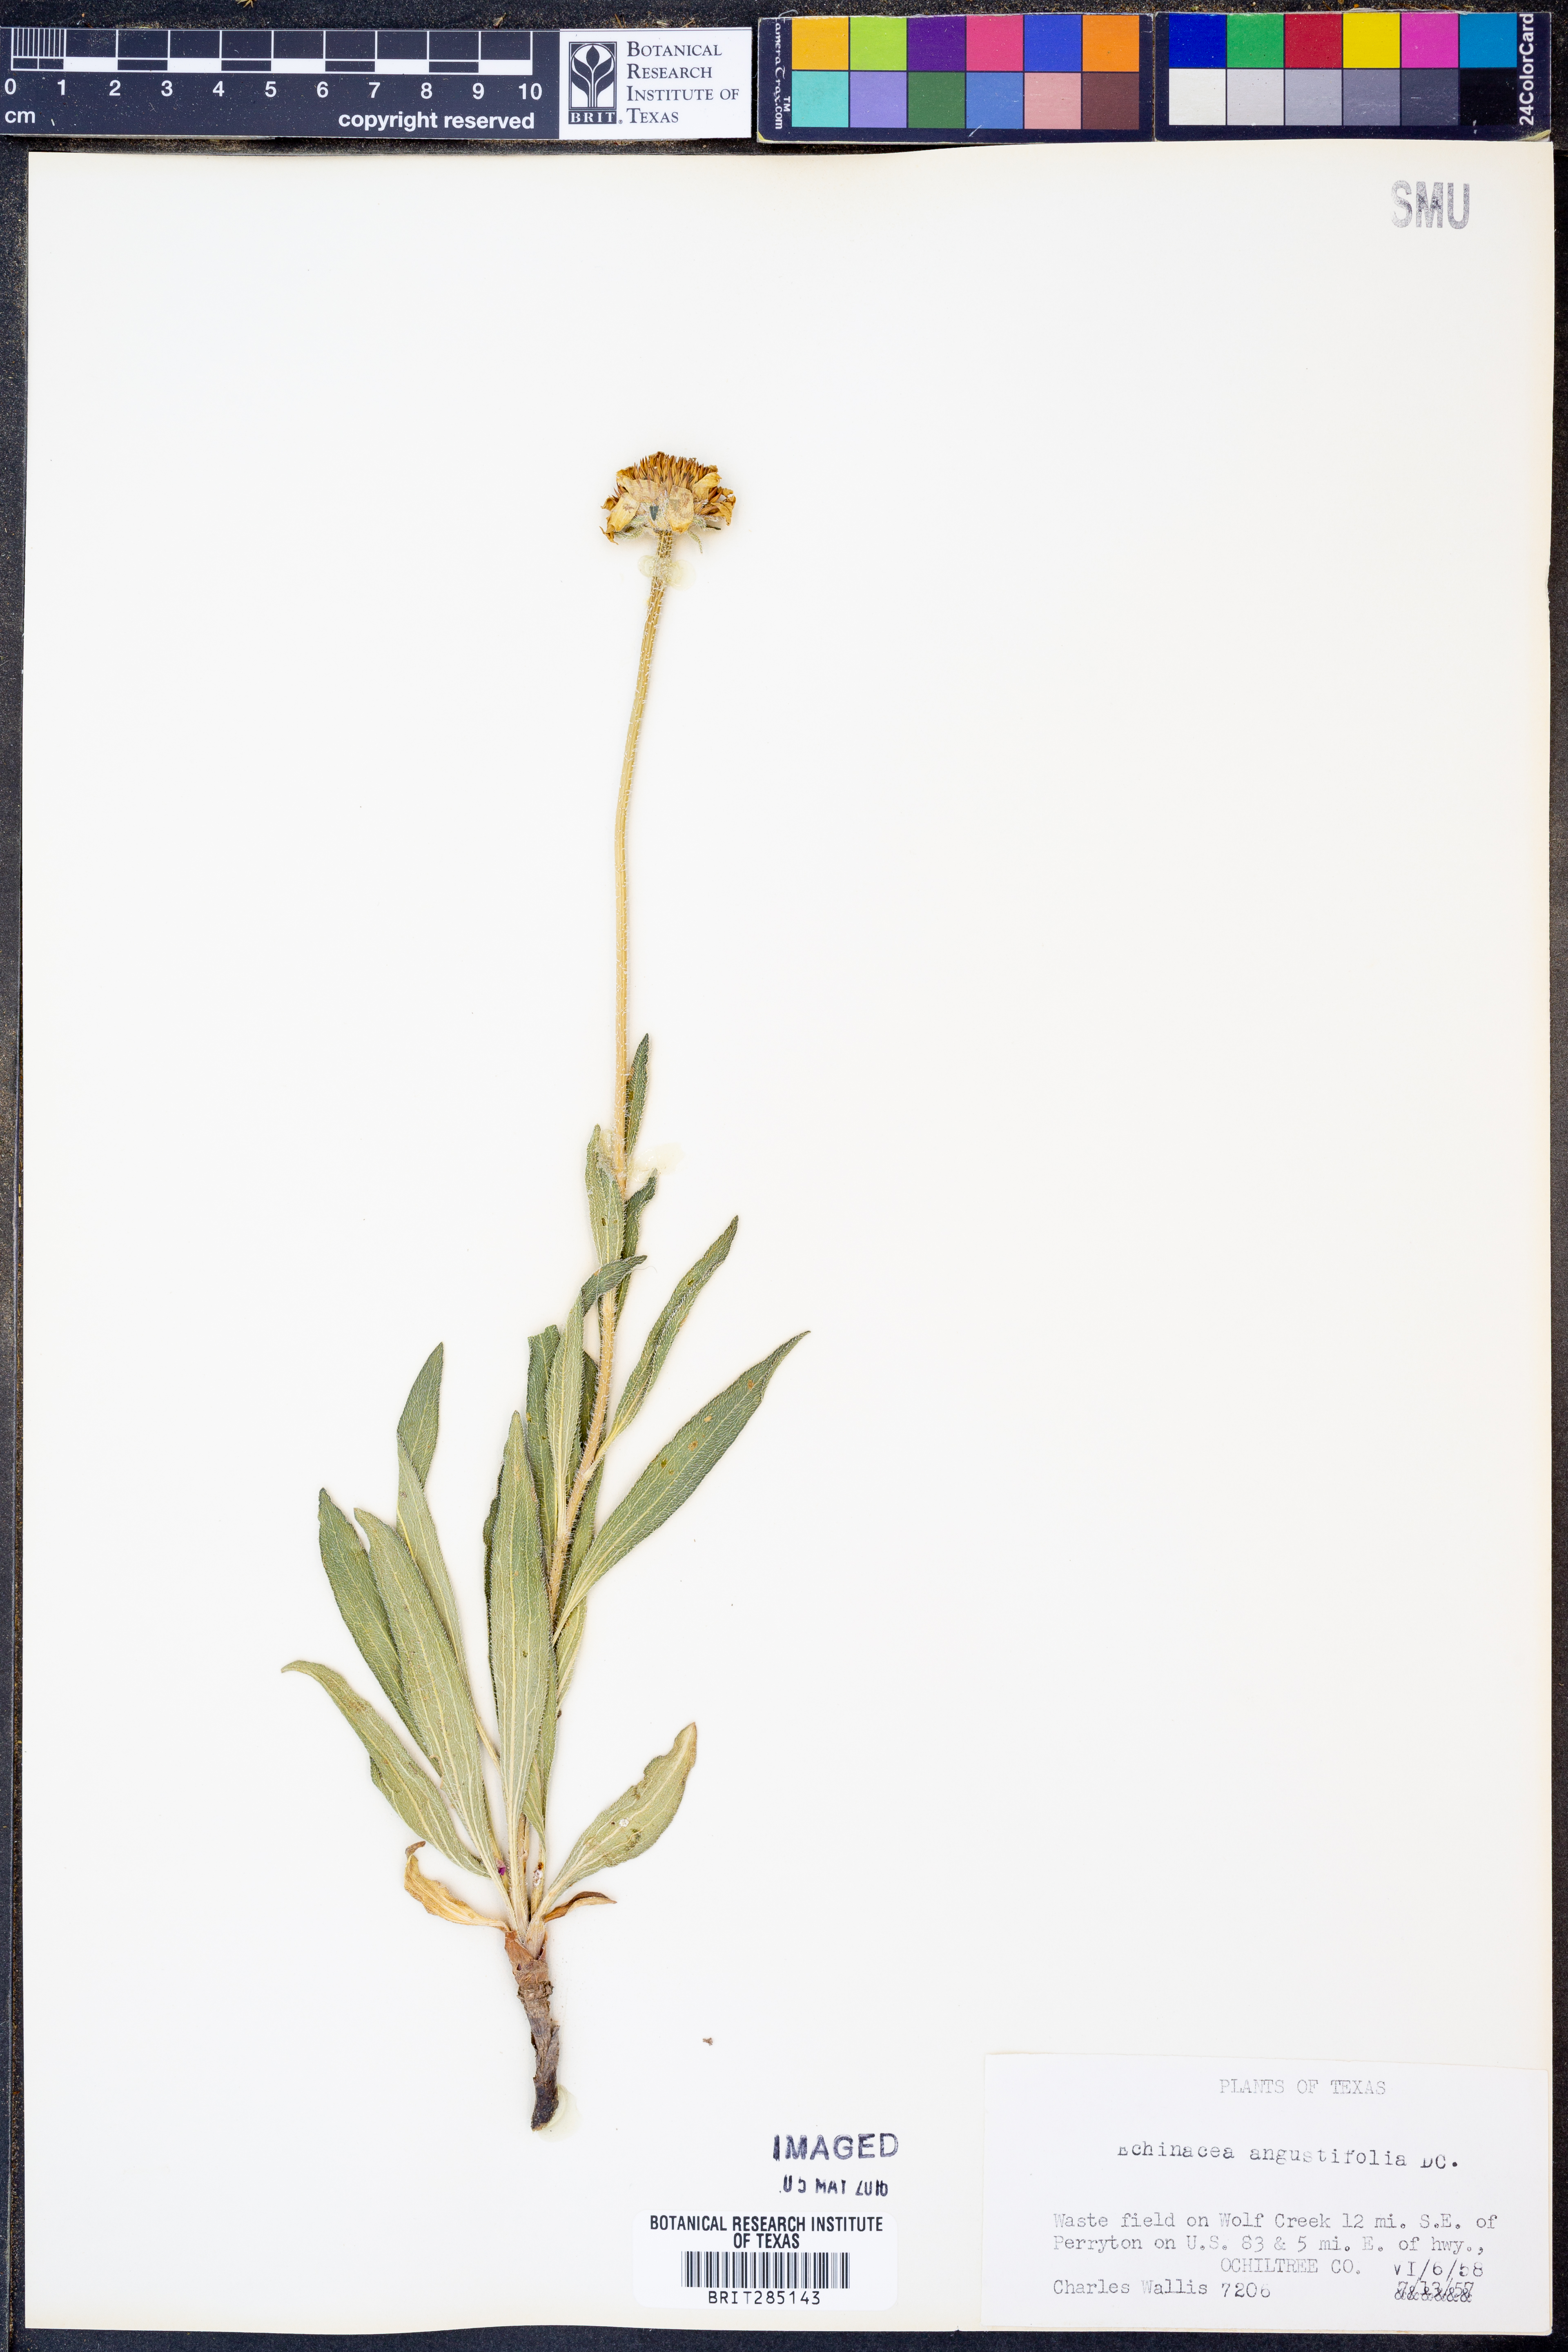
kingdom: Plantae
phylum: Tracheophyta
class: Magnoliopsida
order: Asterales
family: Asteraceae
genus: Echinacea
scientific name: Echinacea angustifolia
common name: Black-sampson echinacea
